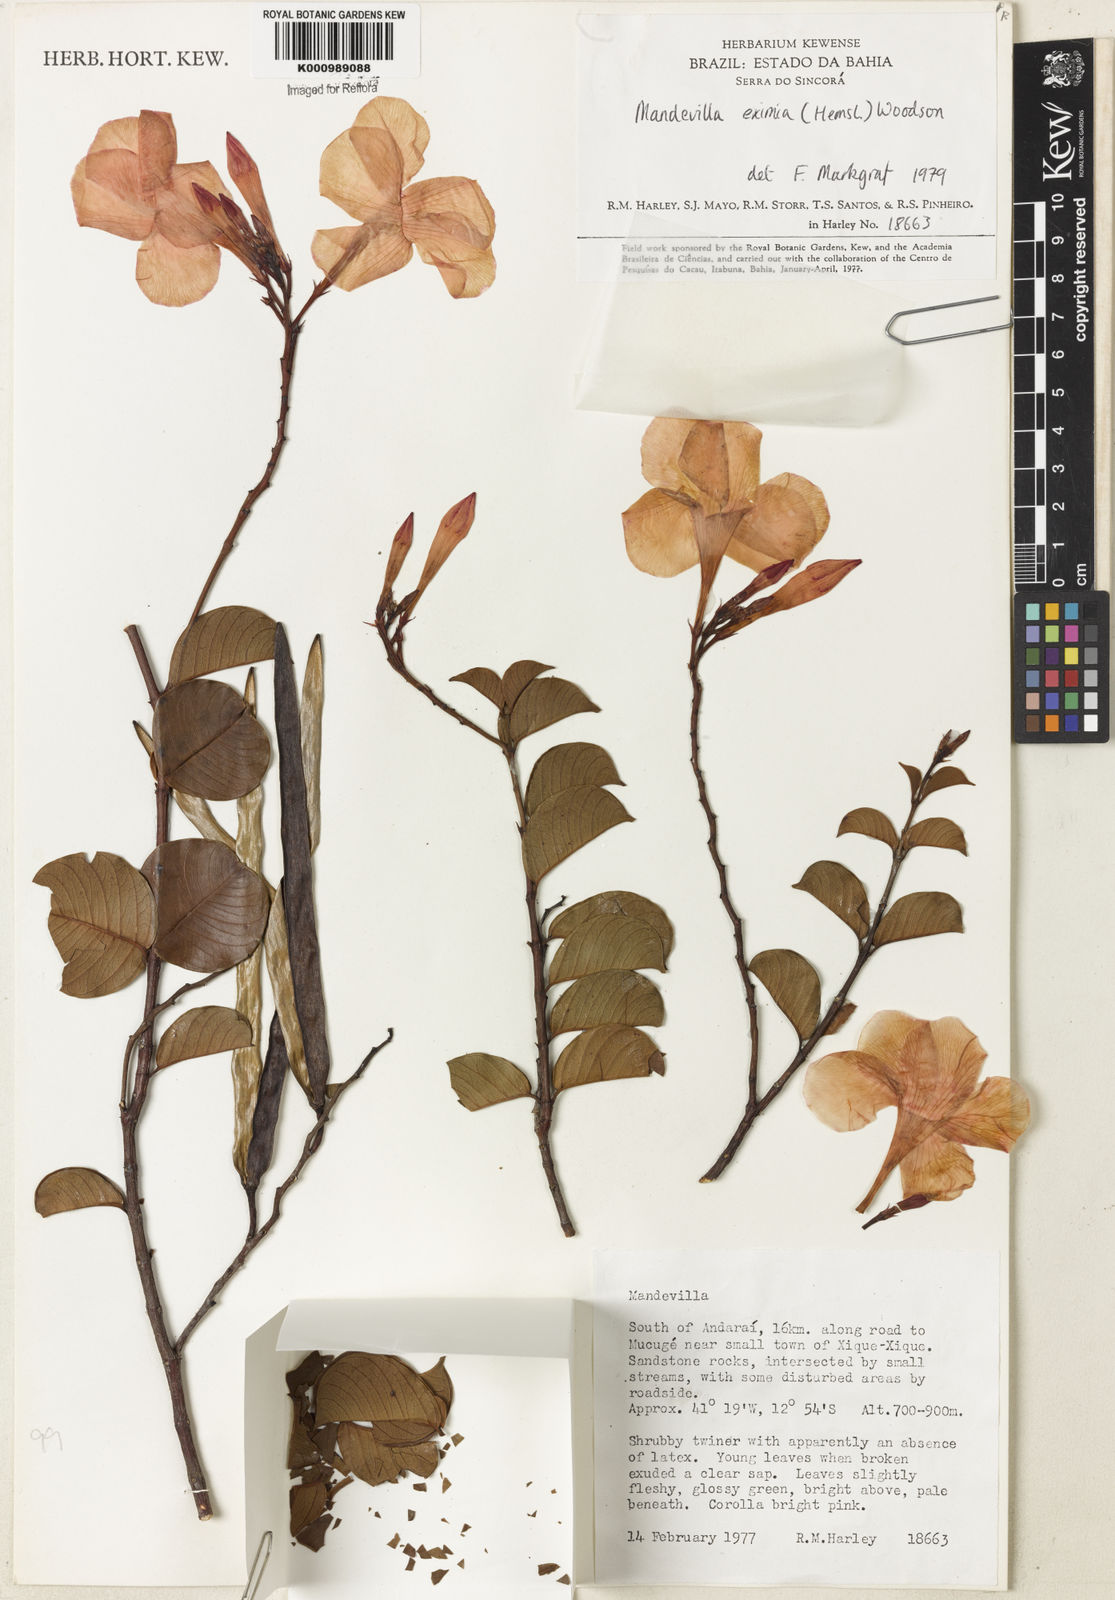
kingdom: Plantae
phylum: Tracheophyta
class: Magnoliopsida
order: Gentianales
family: Apocynaceae
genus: Mandevilla
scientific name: Mandevilla moricandiana
